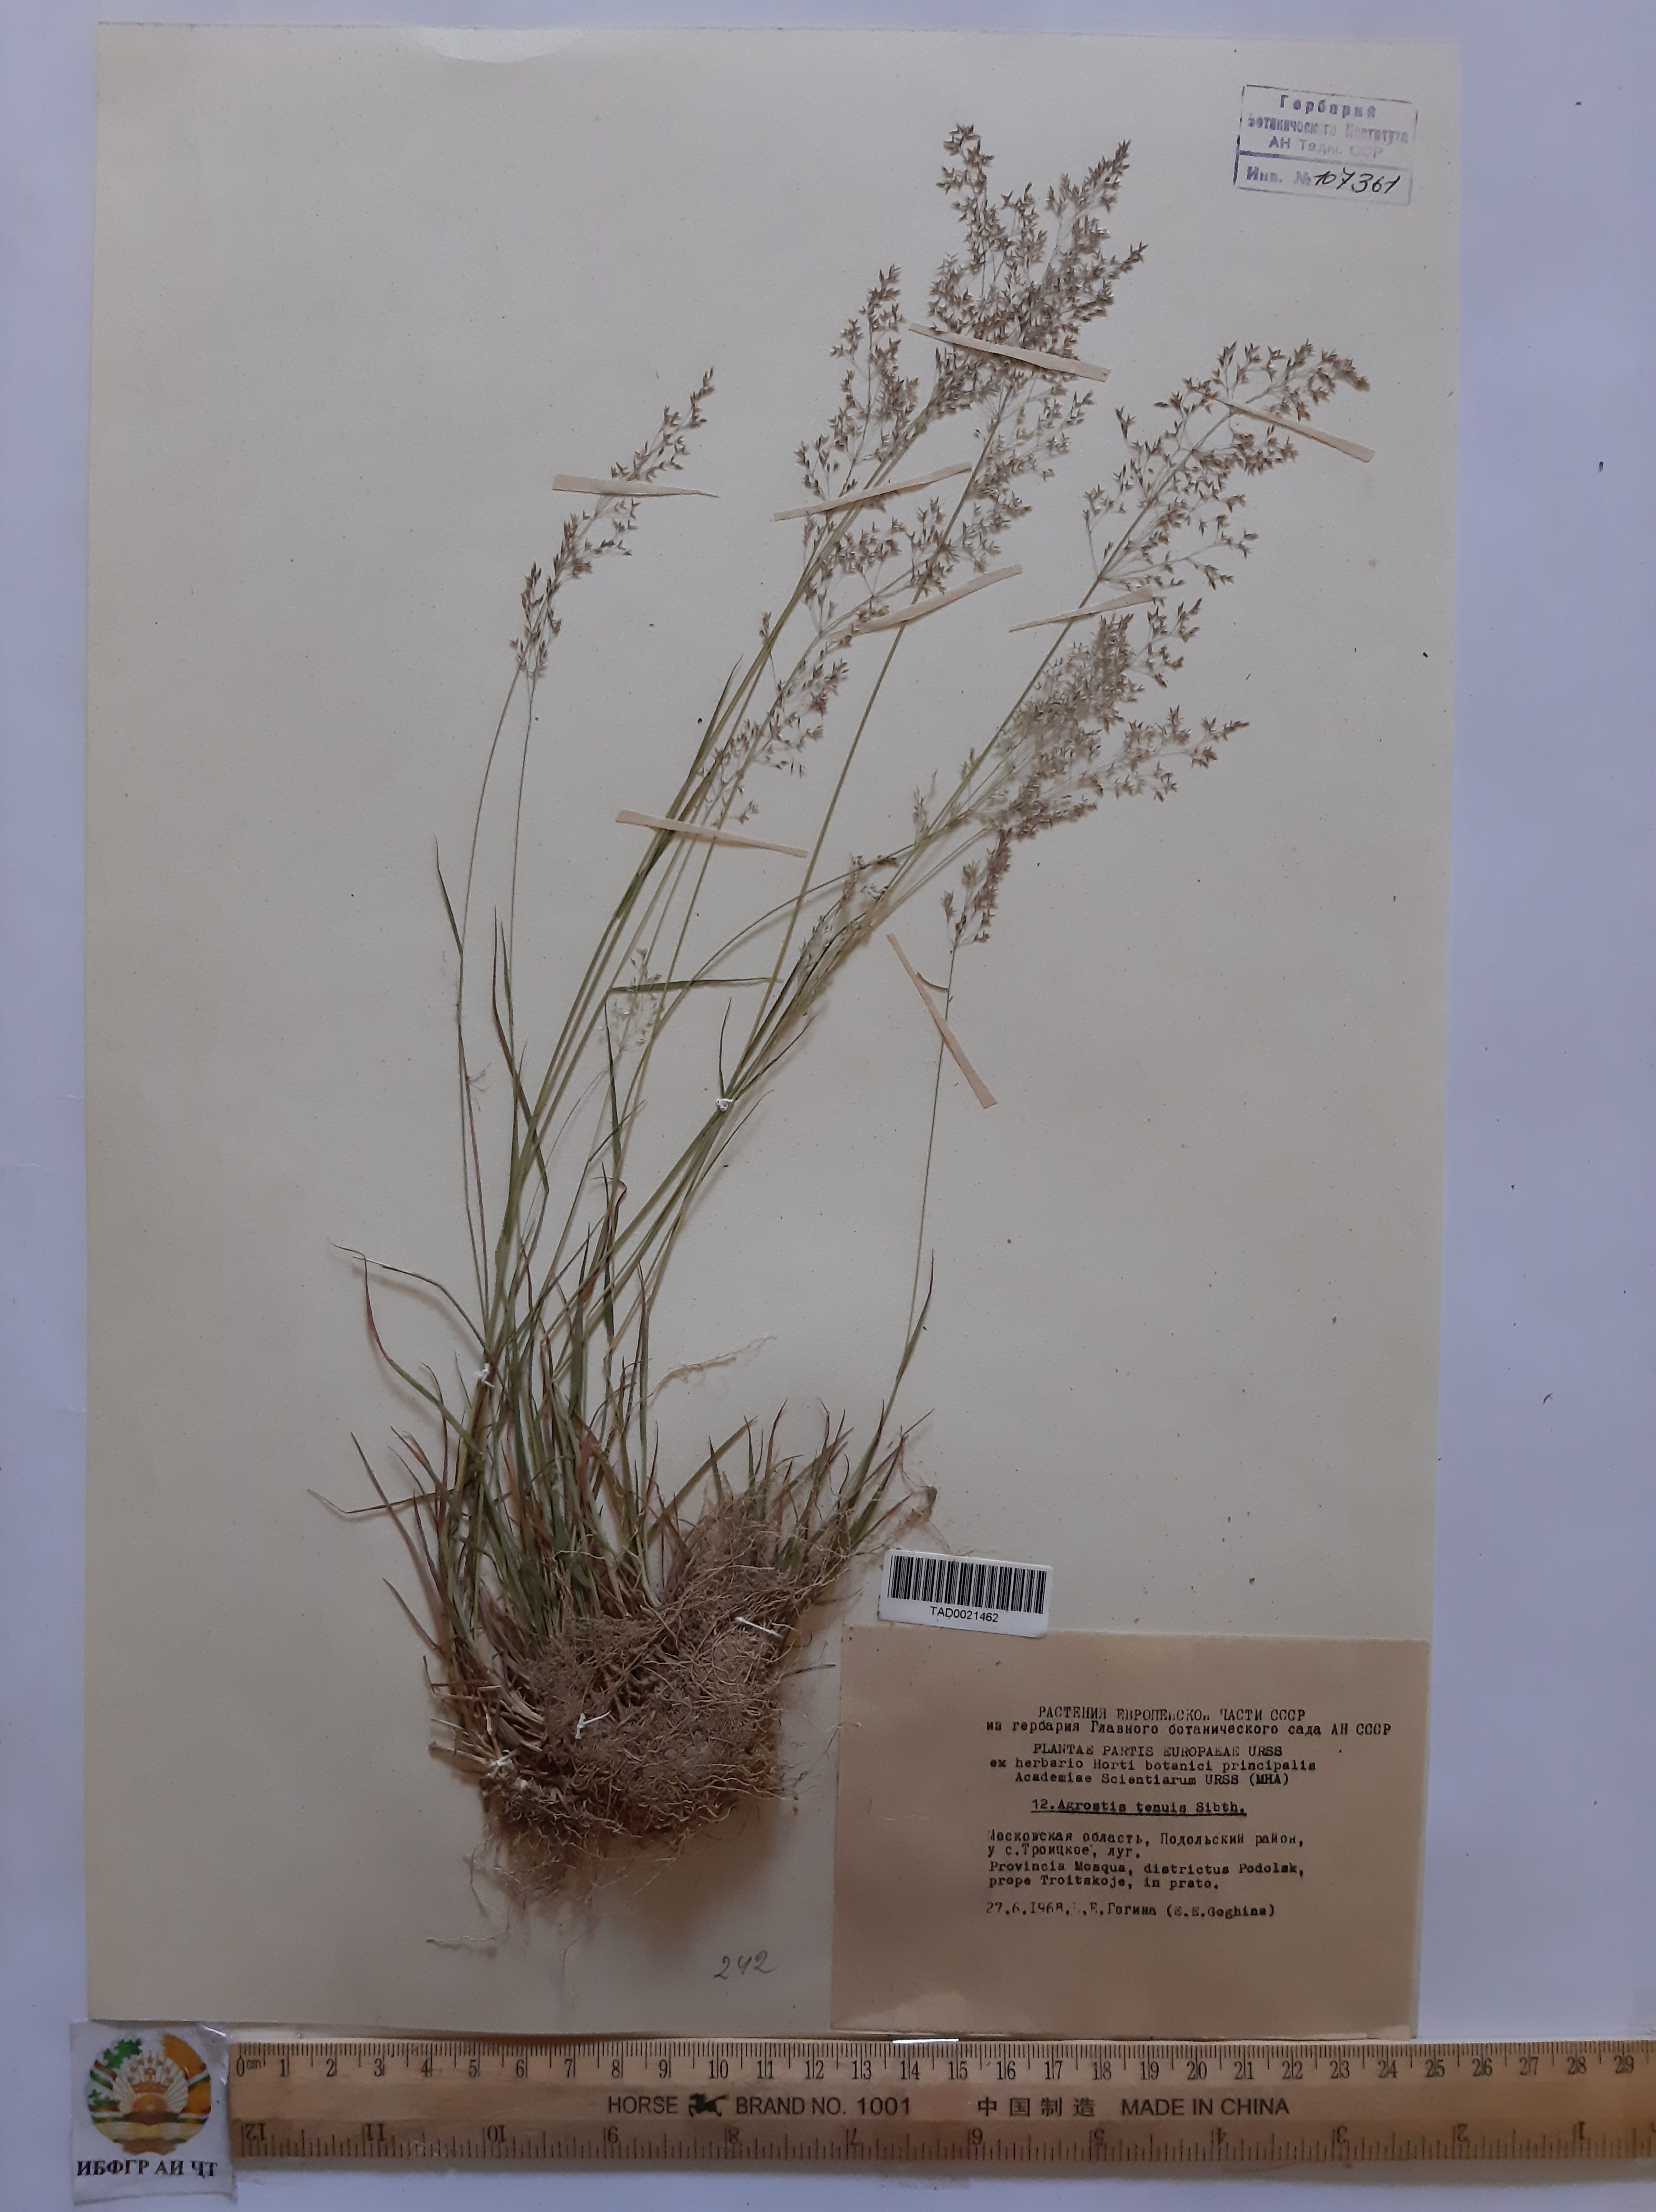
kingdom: Plantae
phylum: Tracheophyta
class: Liliopsida
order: Poales
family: Poaceae
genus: Agrostis
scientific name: Agrostis capillaris
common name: Colonial bentgrass
